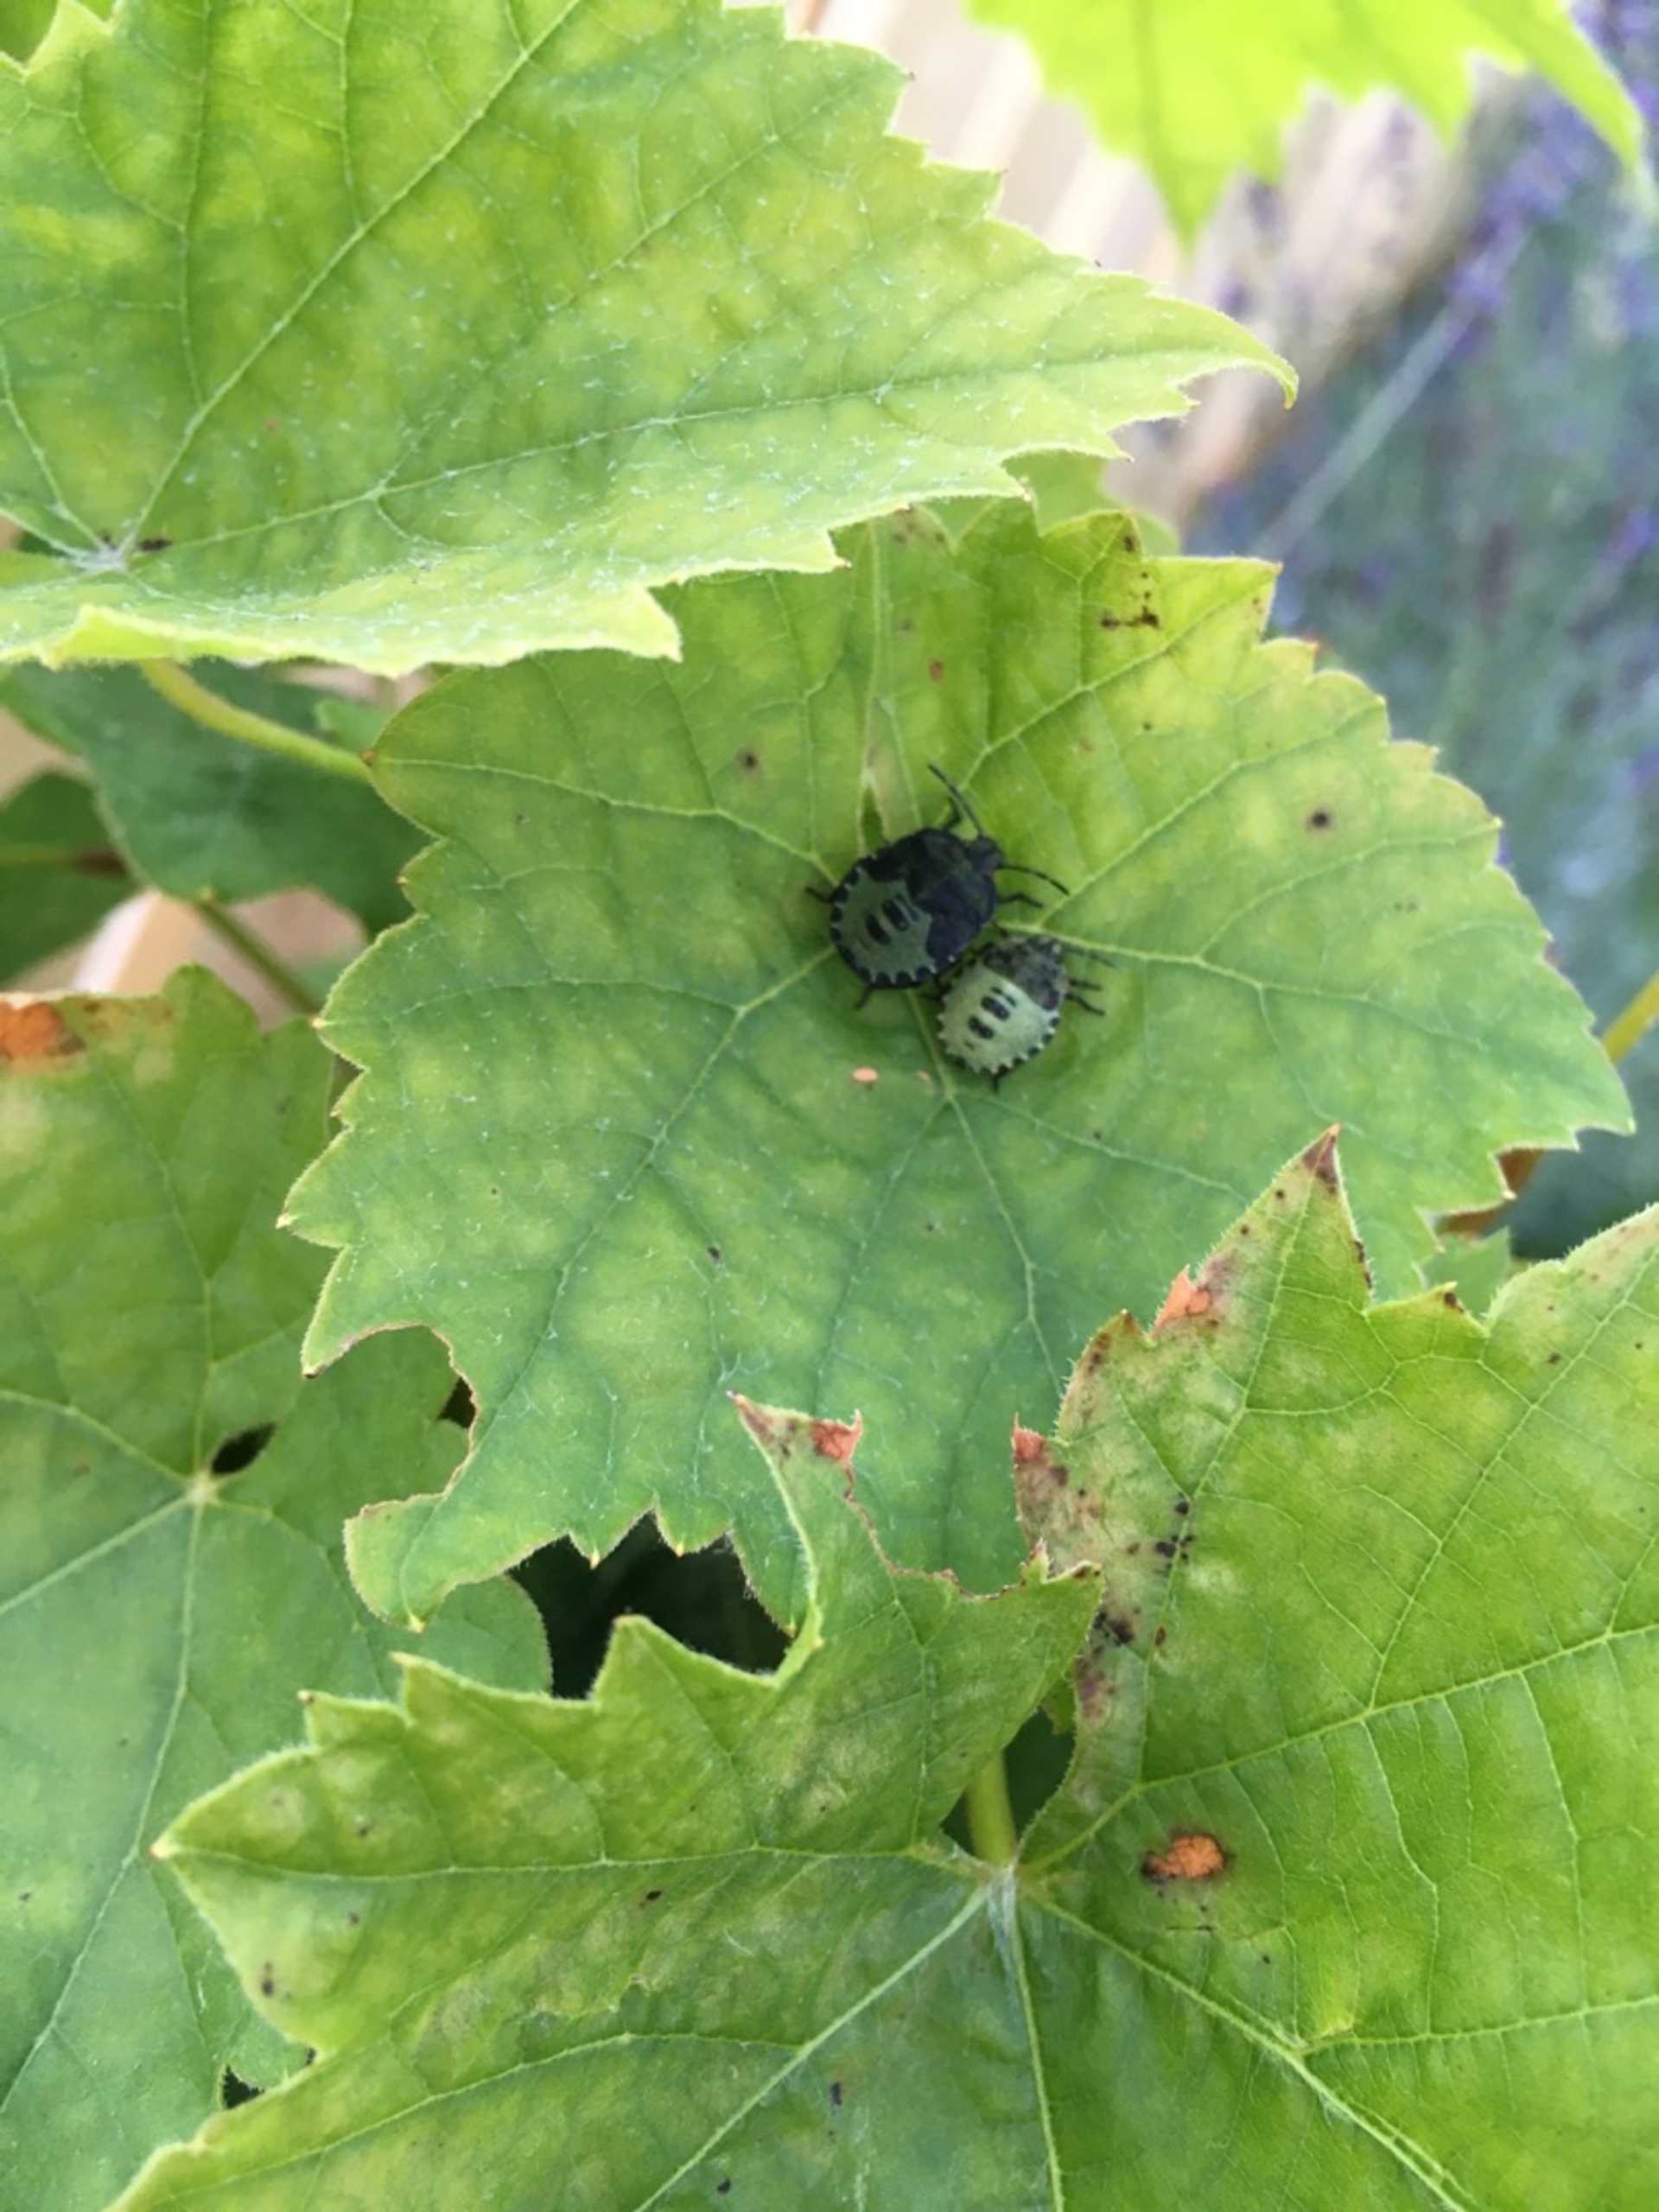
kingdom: Animalia
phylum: Arthropoda
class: Insecta
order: Hemiptera
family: Pentatomidae
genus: Palomena
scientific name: Palomena prasina
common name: Grøn bredtæge
